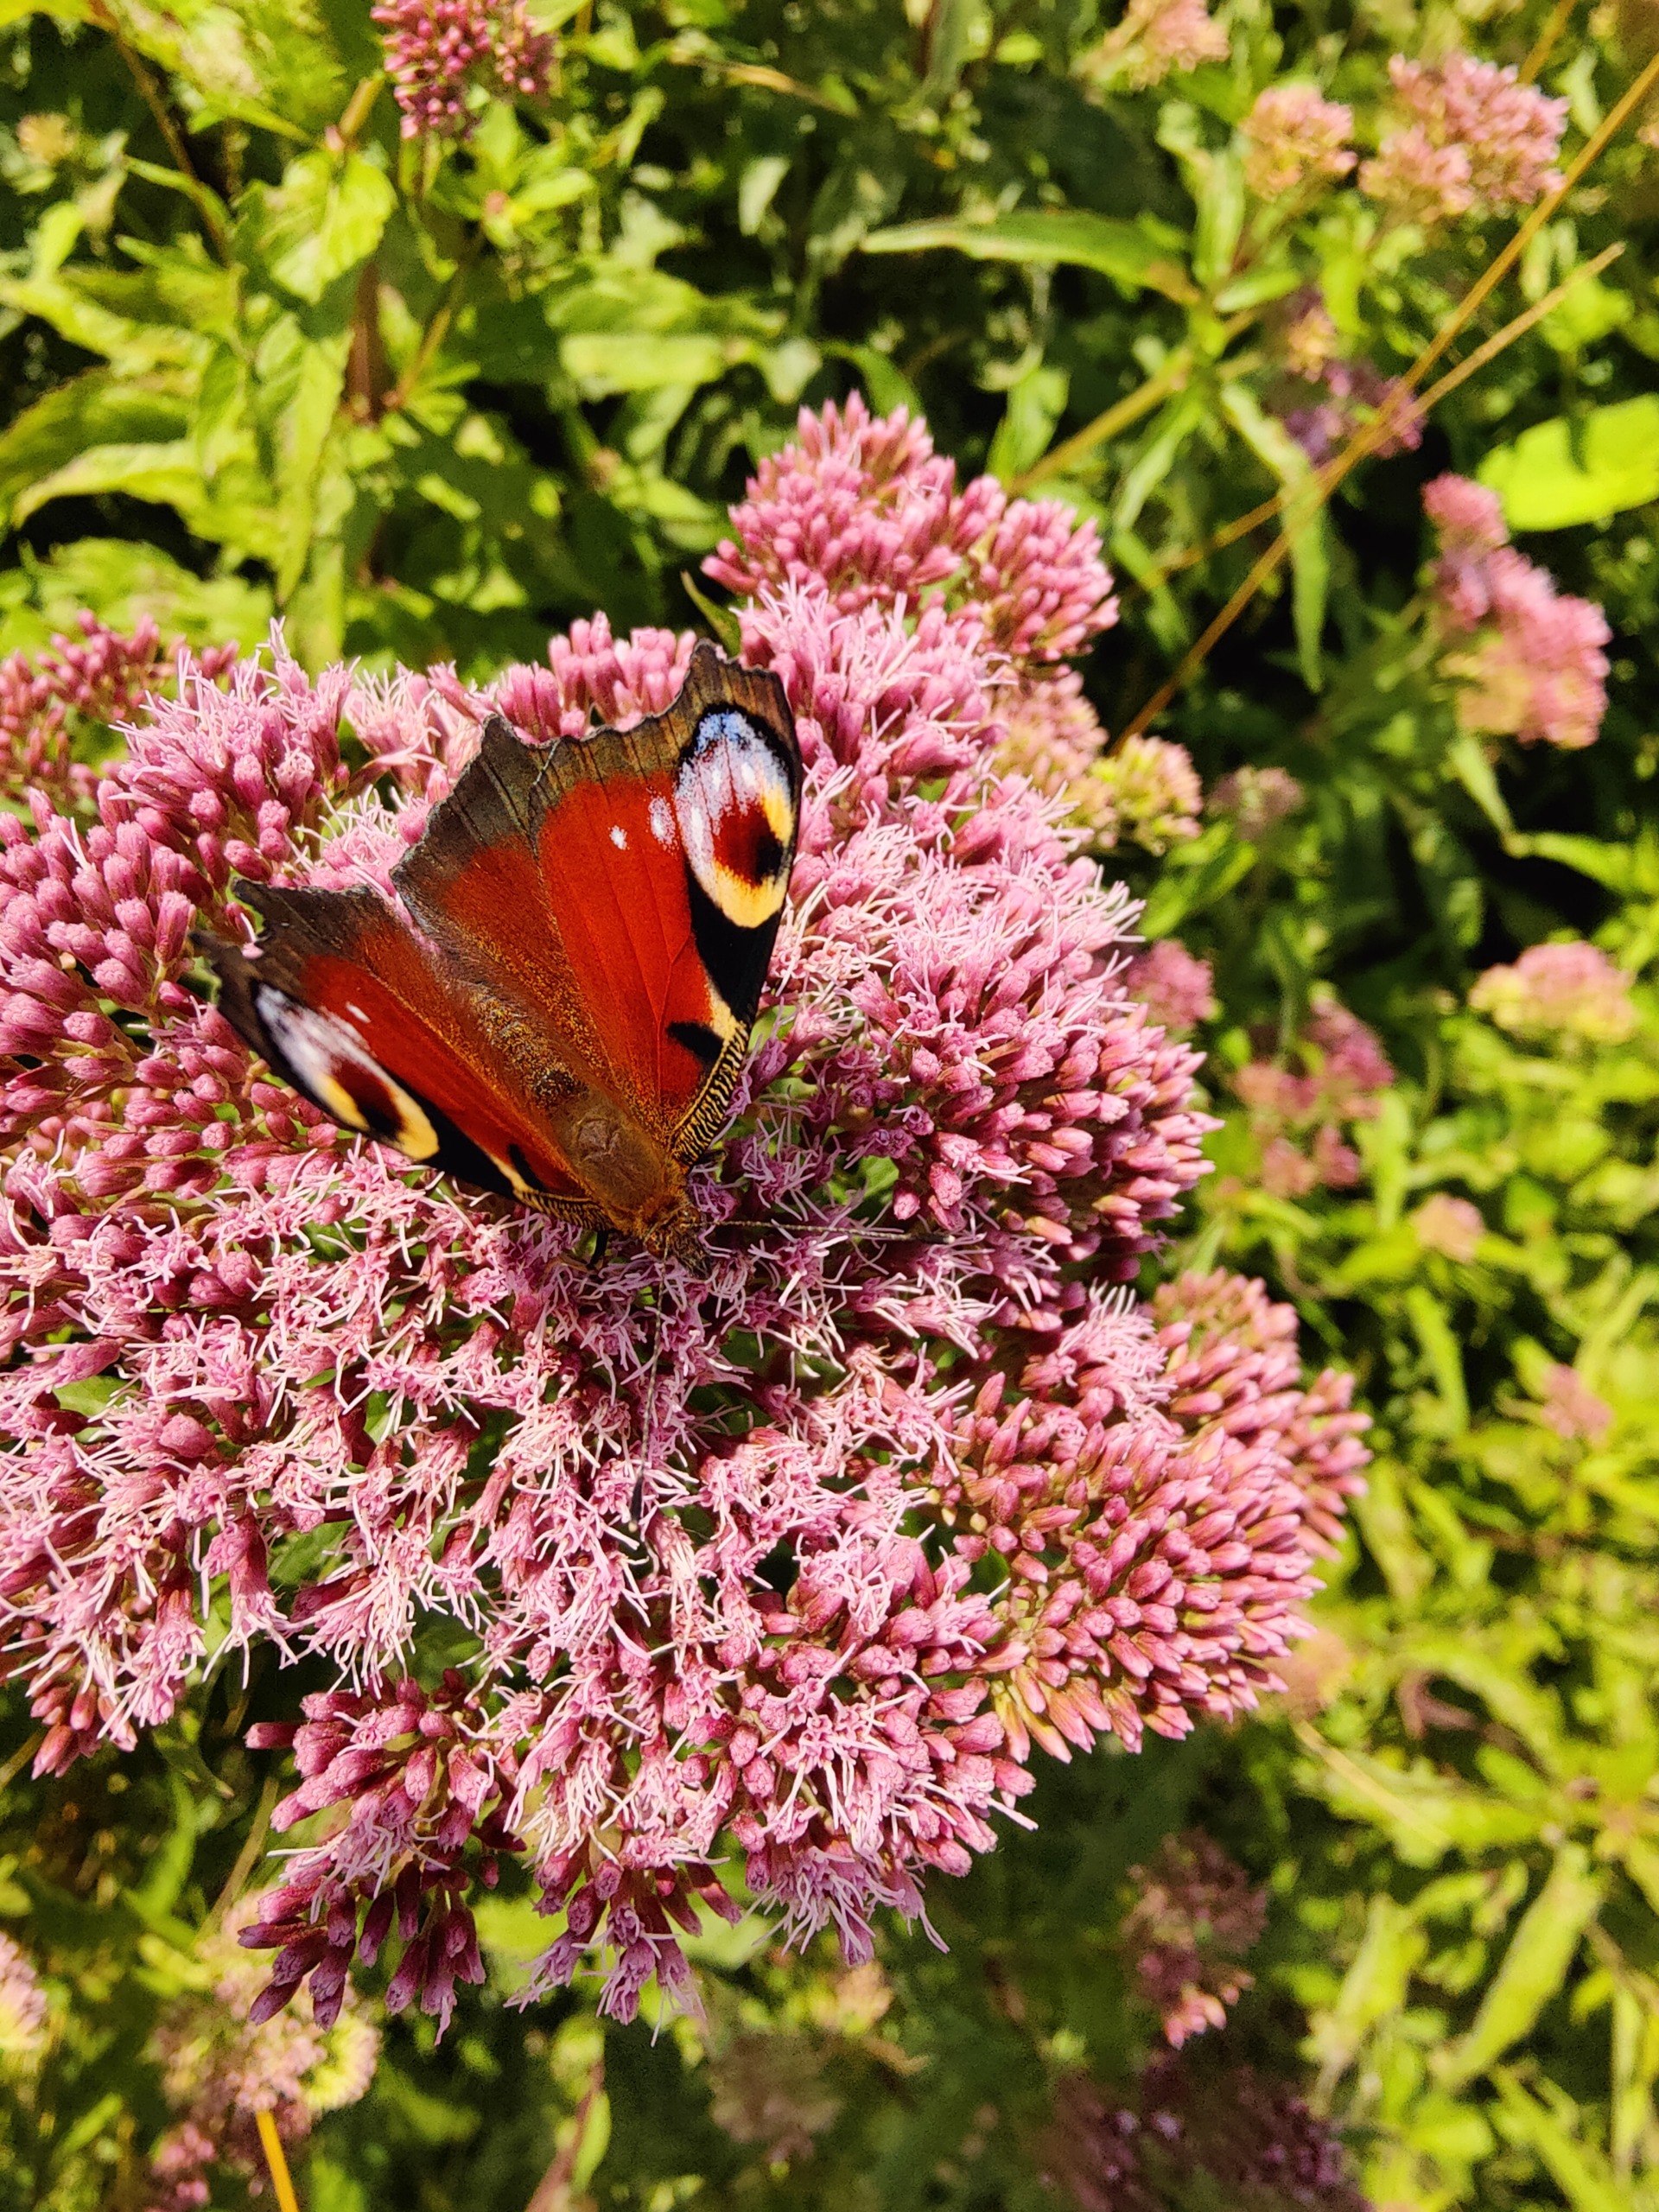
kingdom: Animalia
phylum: Arthropoda
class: Insecta
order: Lepidoptera
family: Nymphalidae
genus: Aglais
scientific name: Aglais io
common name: Dagpåfugleøje
